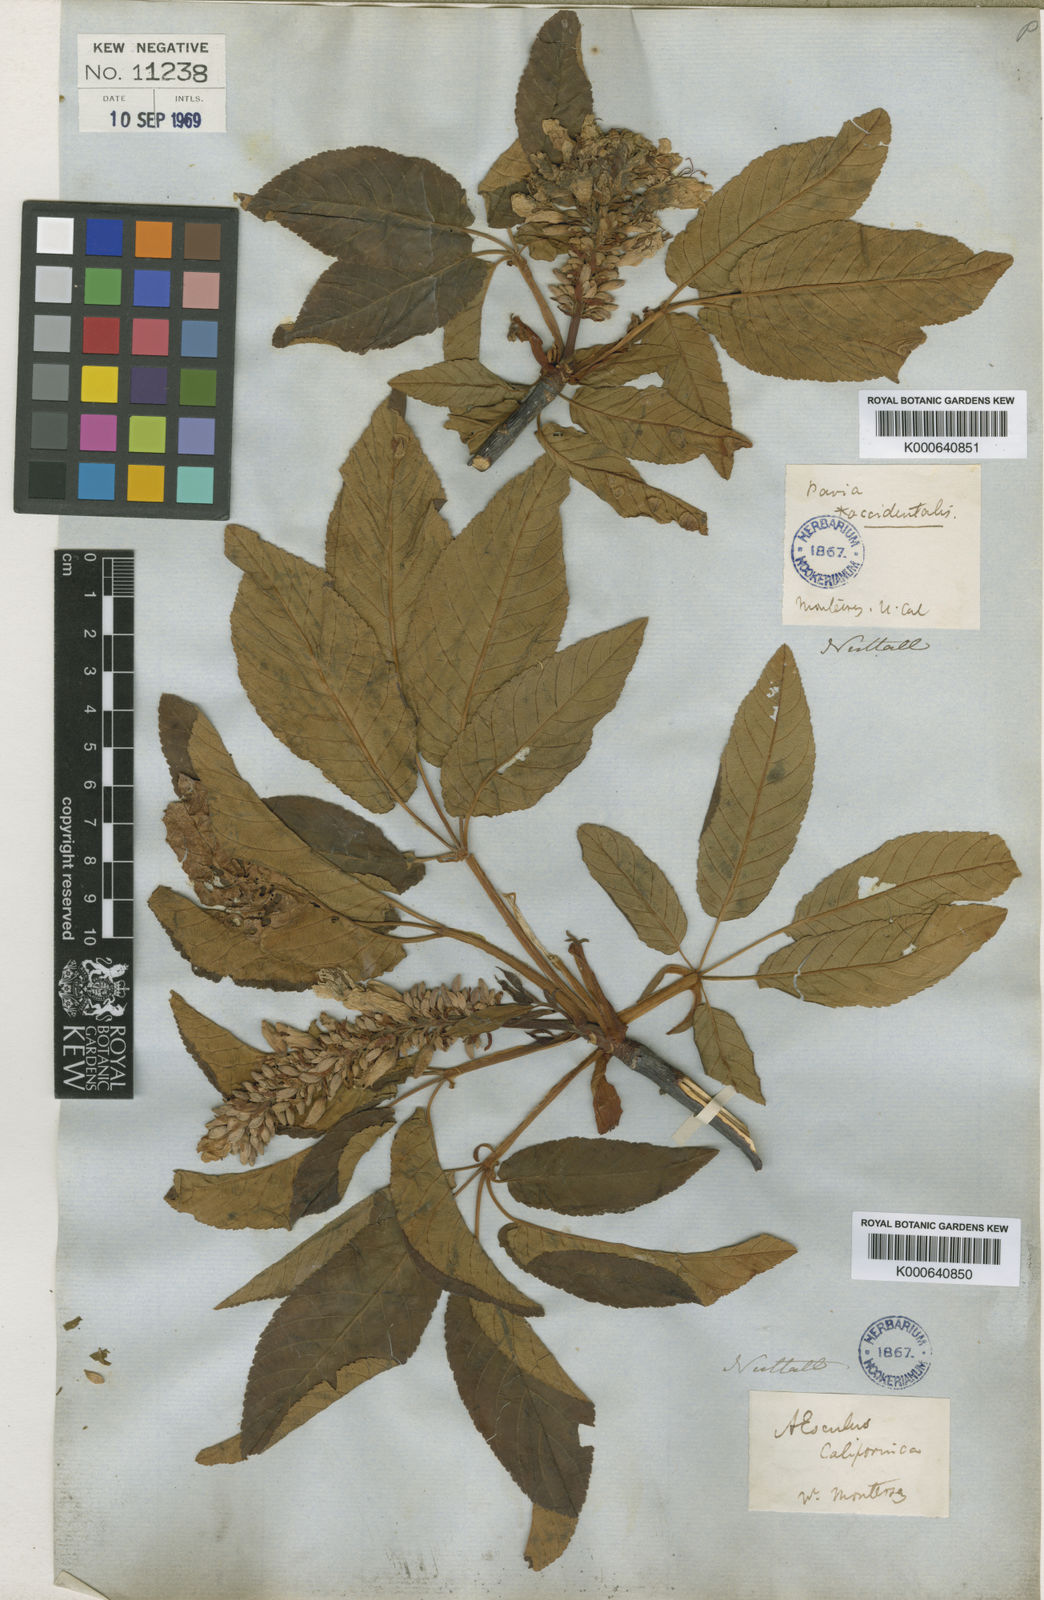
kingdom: Plantae
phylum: Tracheophyta
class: Magnoliopsida
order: Sapindales
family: Sapindaceae
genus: Aesculus
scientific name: Aesculus californica
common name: California buckeye
